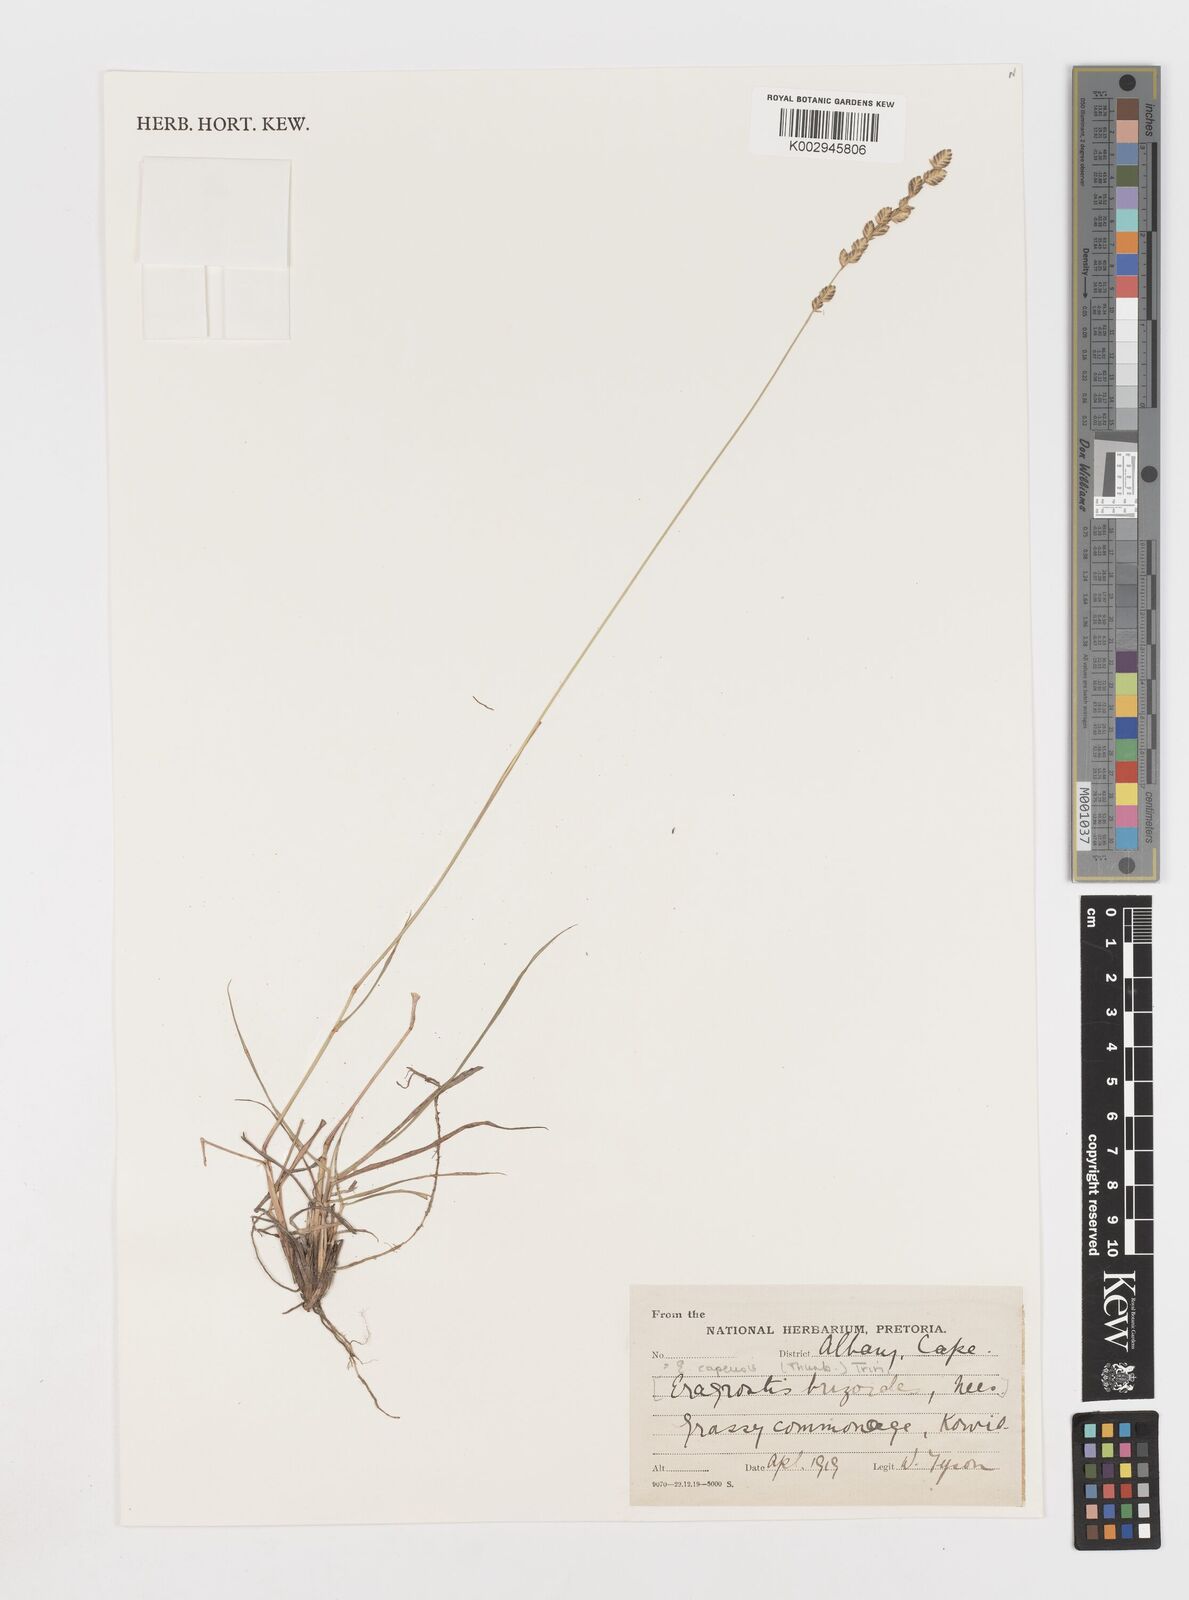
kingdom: Plantae
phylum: Tracheophyta
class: Liliopsida
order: Poales
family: Poaceae
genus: Eragrostis
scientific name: Eragrostis capensis
